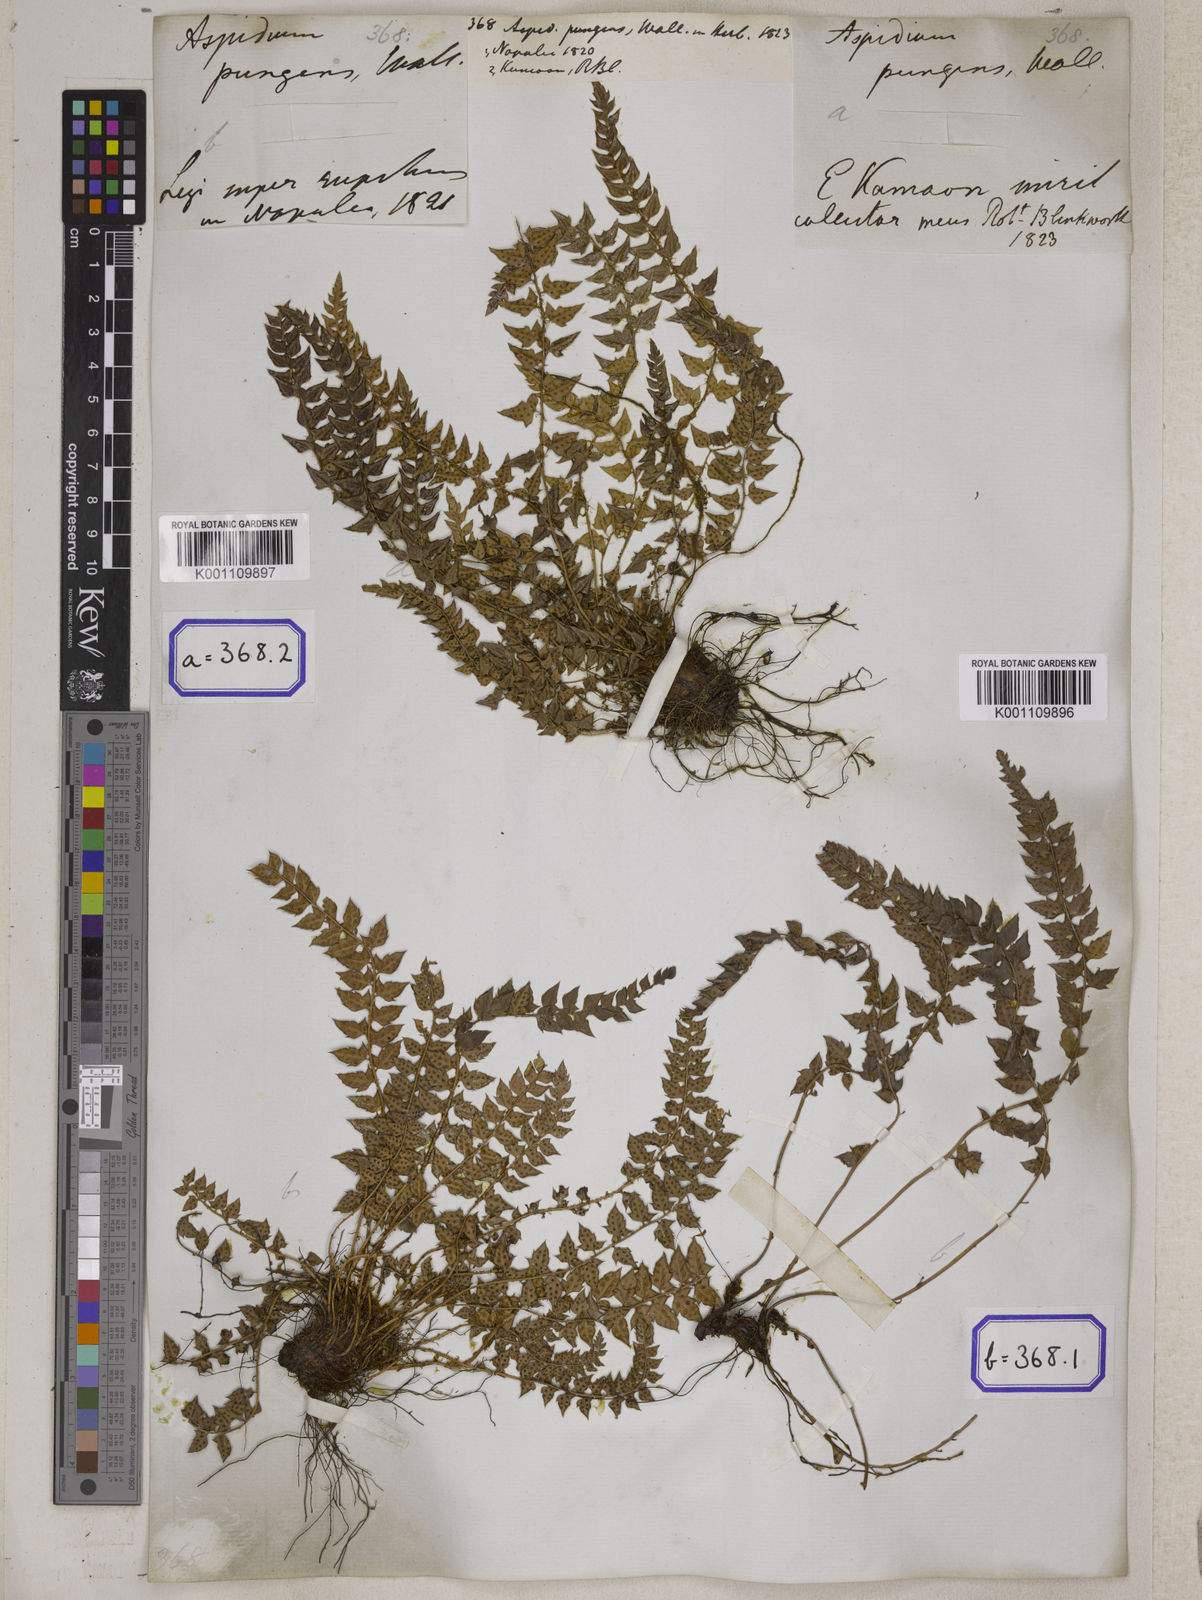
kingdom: Plantae
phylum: Tracheophyta
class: Polypodiopsida
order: Polypodiales
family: Dryopteridaceae
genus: Polystichum
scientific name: Polystichum stimulans
